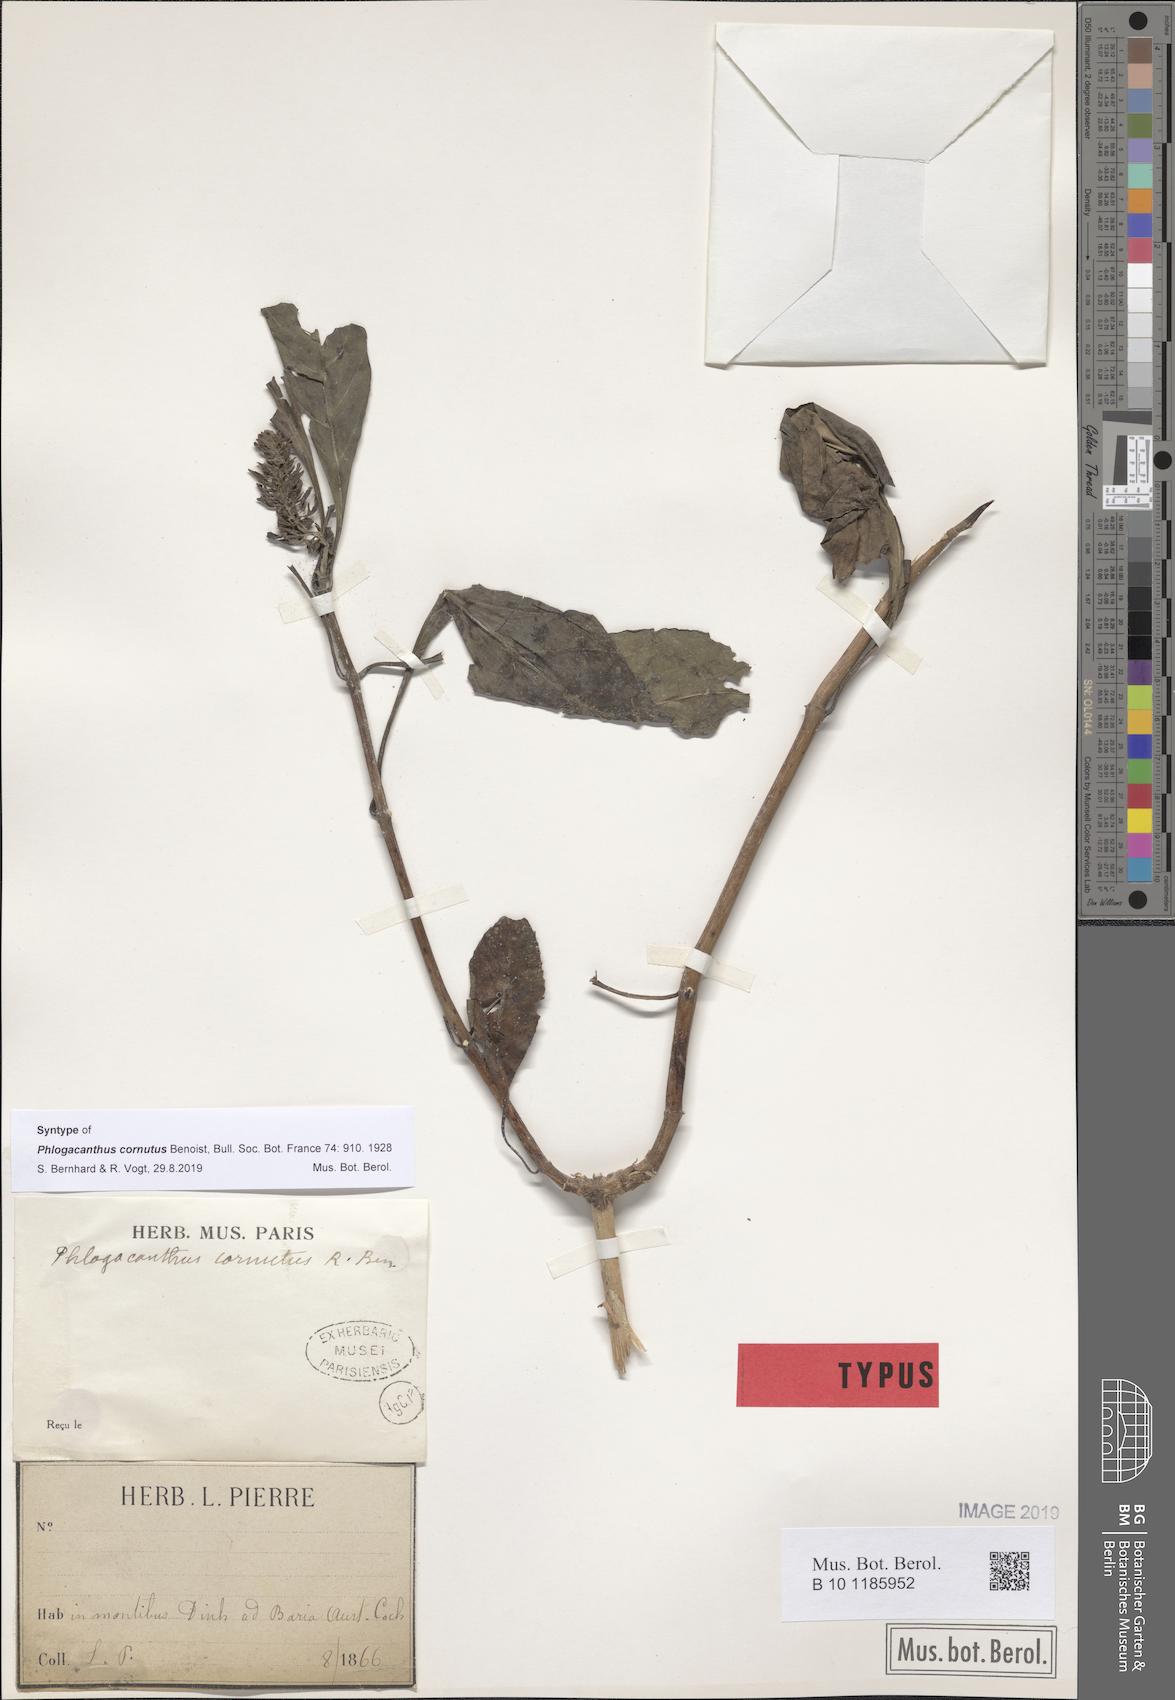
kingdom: Plantae
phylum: Tracheophyta
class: Magnoliopsida
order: Lamiales
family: Acanthaceae
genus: Phlogacanthus
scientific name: Phlogacanthus cornutus
